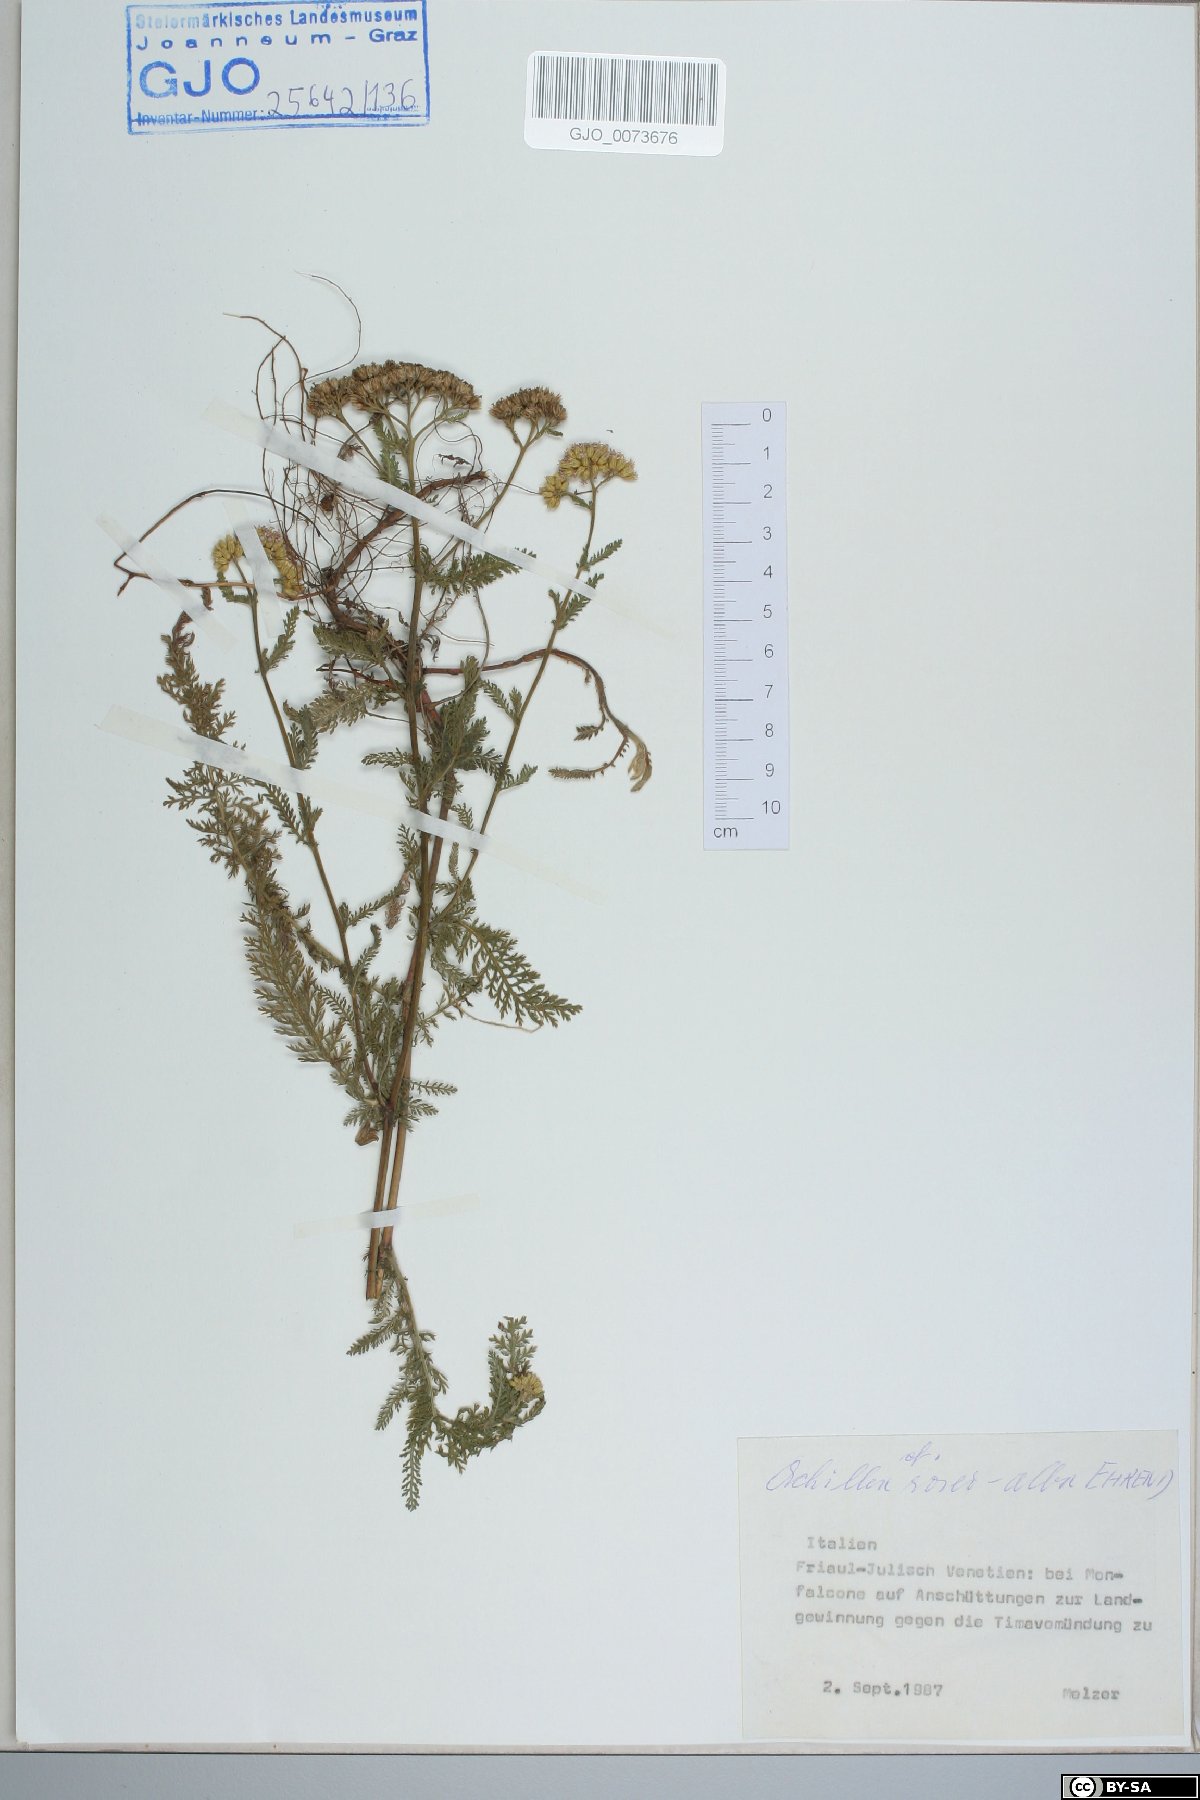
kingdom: Plantae
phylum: Tracheophyta
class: Magnoliopsida
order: Asterales
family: Asteraceae
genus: Achillea
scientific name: Achillea distans
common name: Tall yarrow
